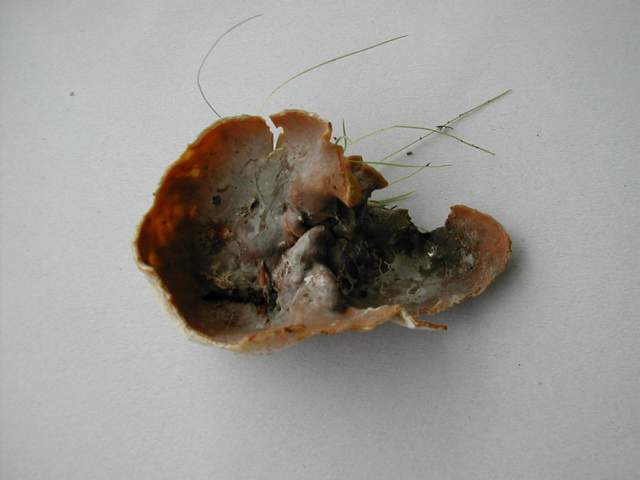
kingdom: Fungi
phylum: Ascomycota
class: Pezizomycetes
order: Pezizales
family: Pezizaceae
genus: Peziza
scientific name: Peziza arvernensis
